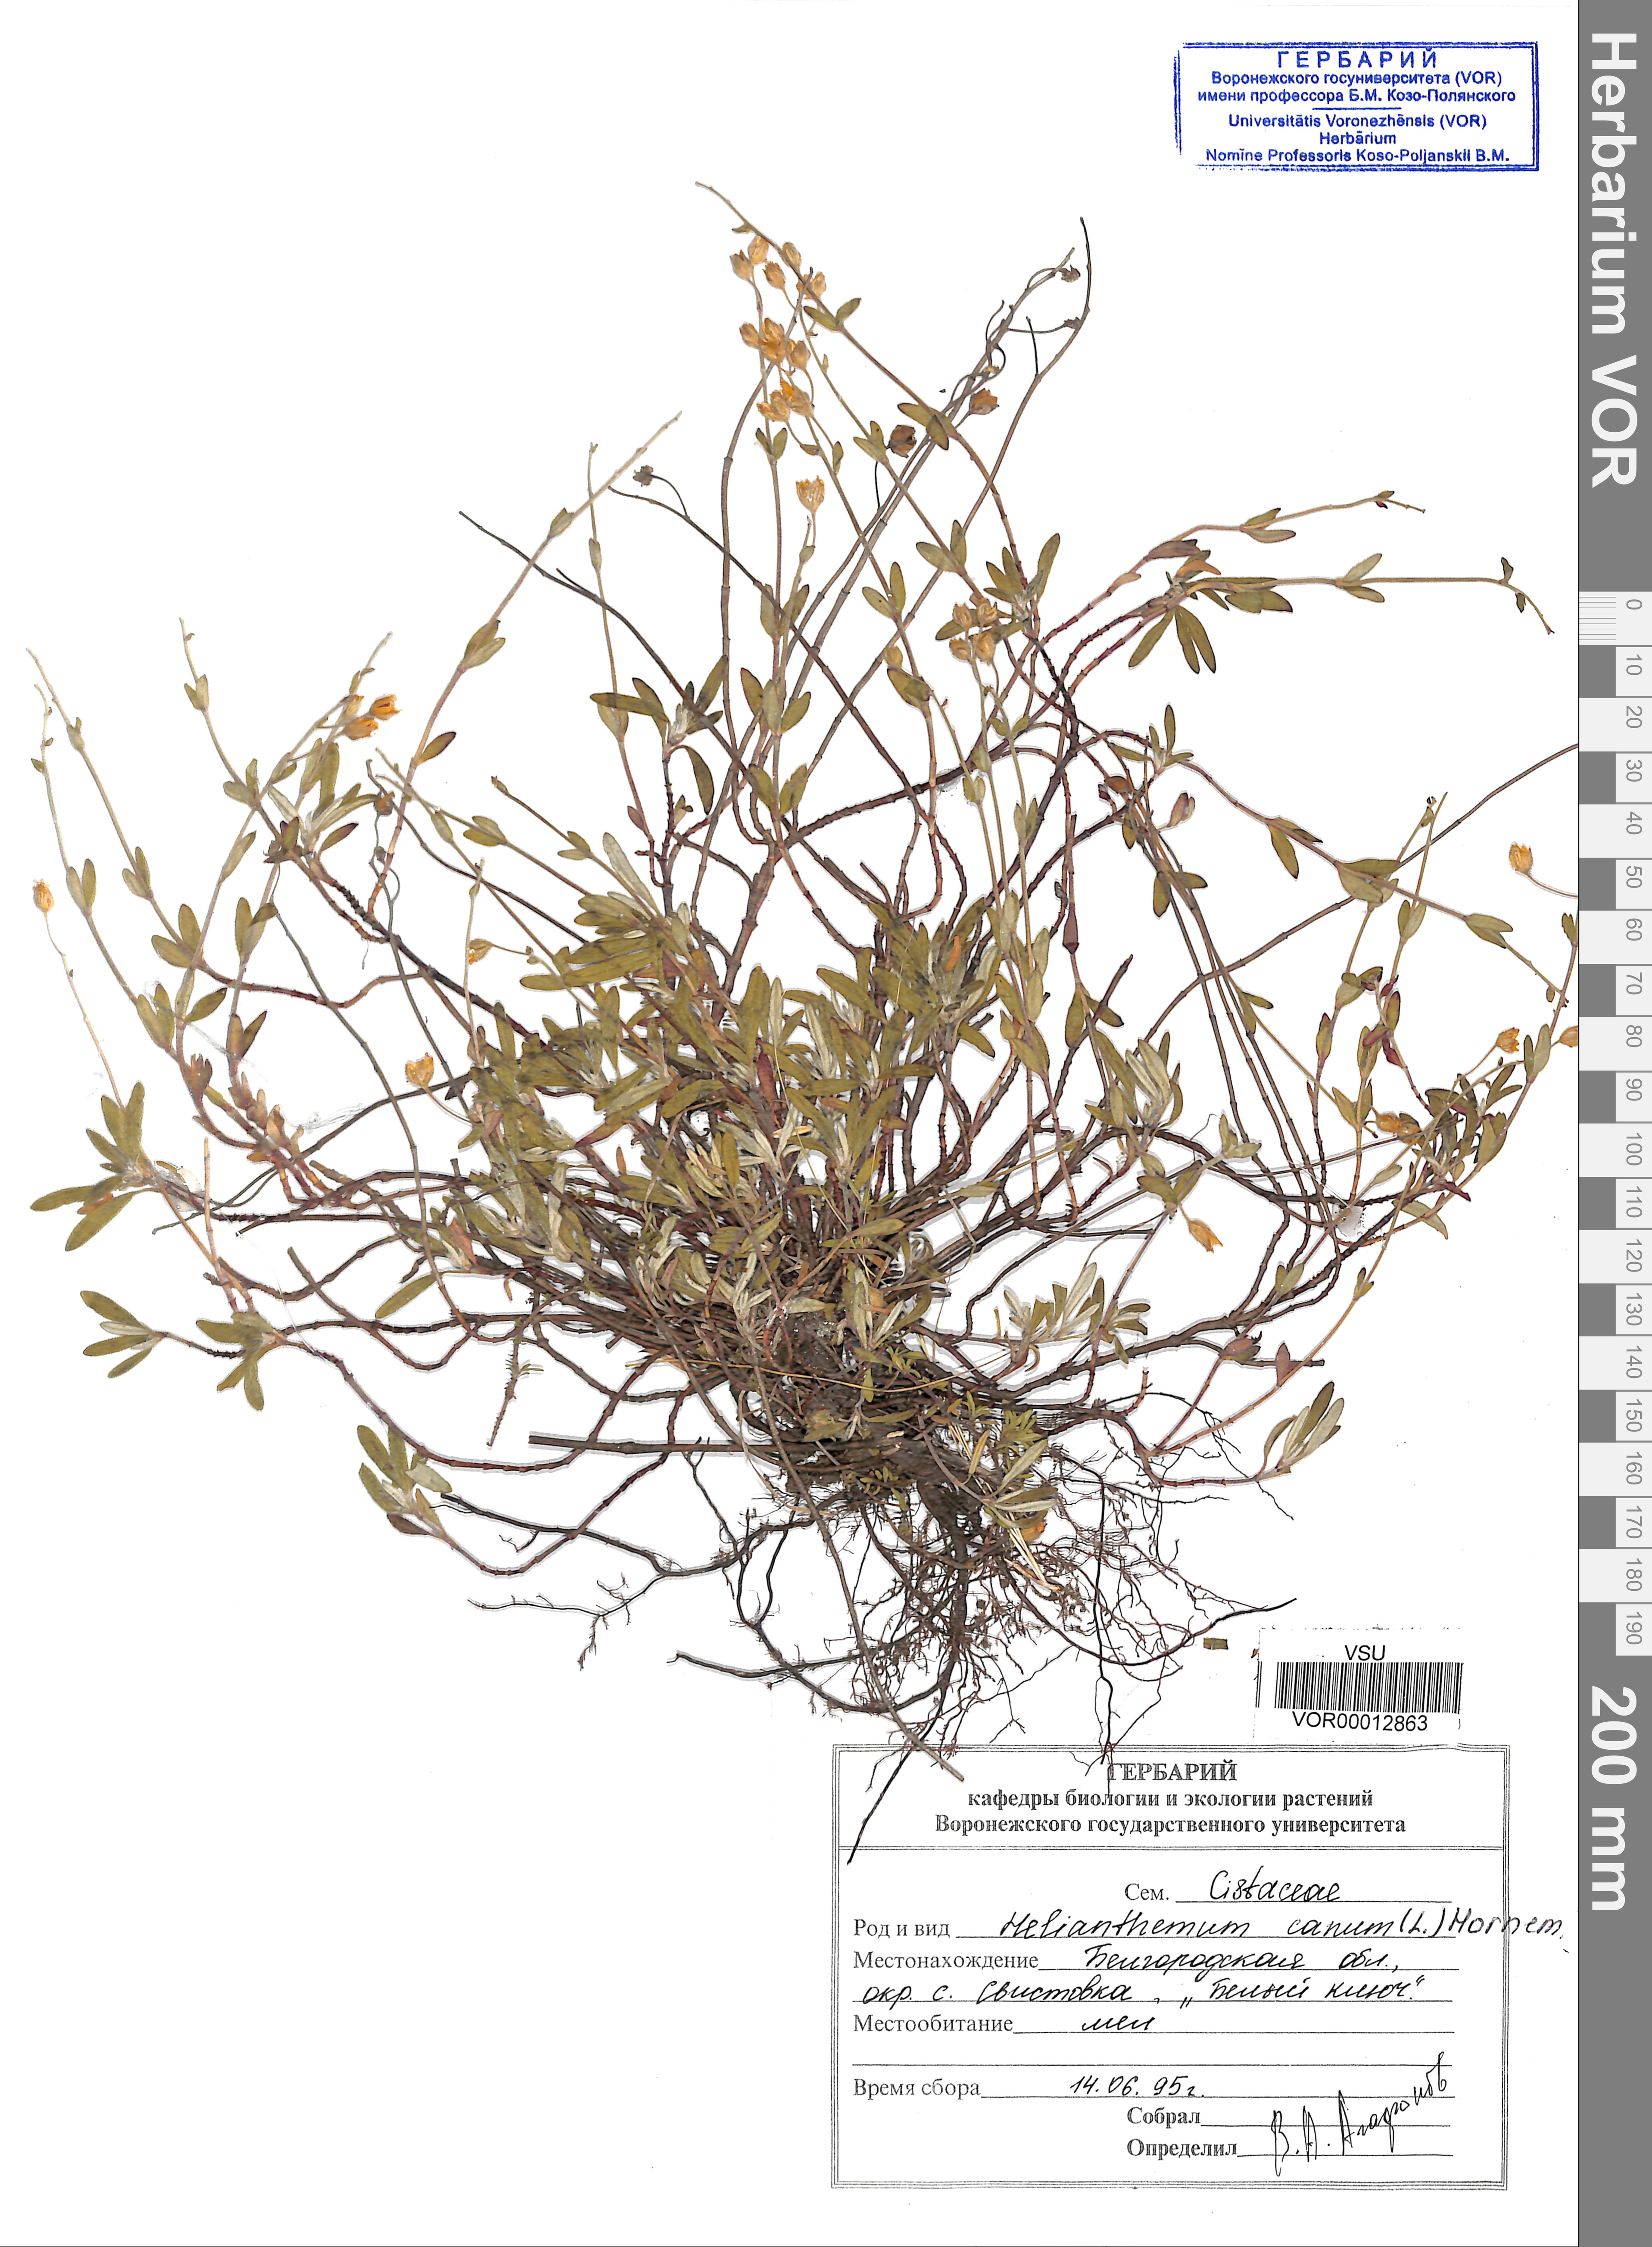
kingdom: Plantae
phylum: Tracheophyta
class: Magnoliopsida
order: Malvales
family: Cistaceae
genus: Helianthemum
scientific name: Helianthemum canum
